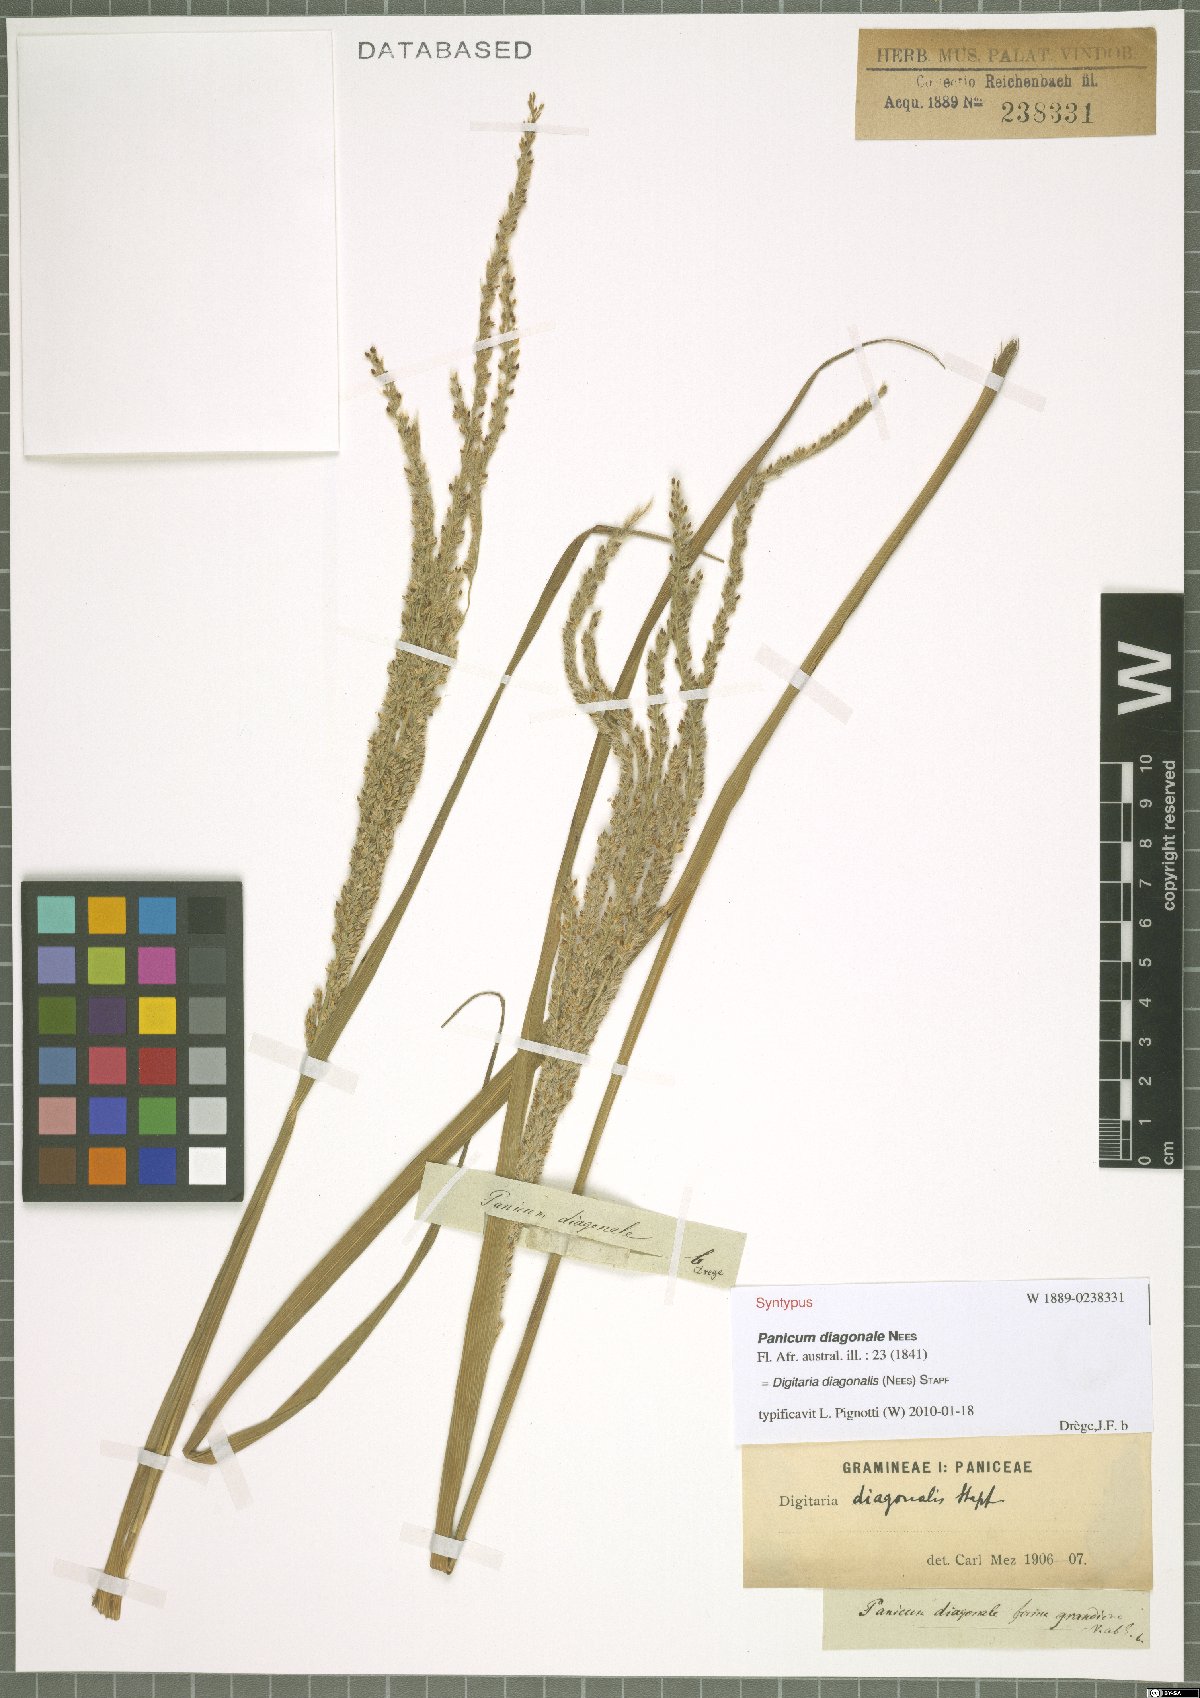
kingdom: Plantae
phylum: Tracheophyta
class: Liliopsida
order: Poales
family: Poaceae
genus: Digitaria
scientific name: Digitaria diagonalis
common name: Brown-seed finger grass
